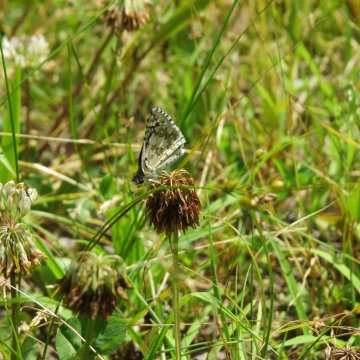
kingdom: Animalia
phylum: Arthropoda
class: Insecta
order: Lepidoptera
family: Hesperiidae
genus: Pyrgus
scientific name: Pyrgus communis
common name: Common Checkered-Skipper
